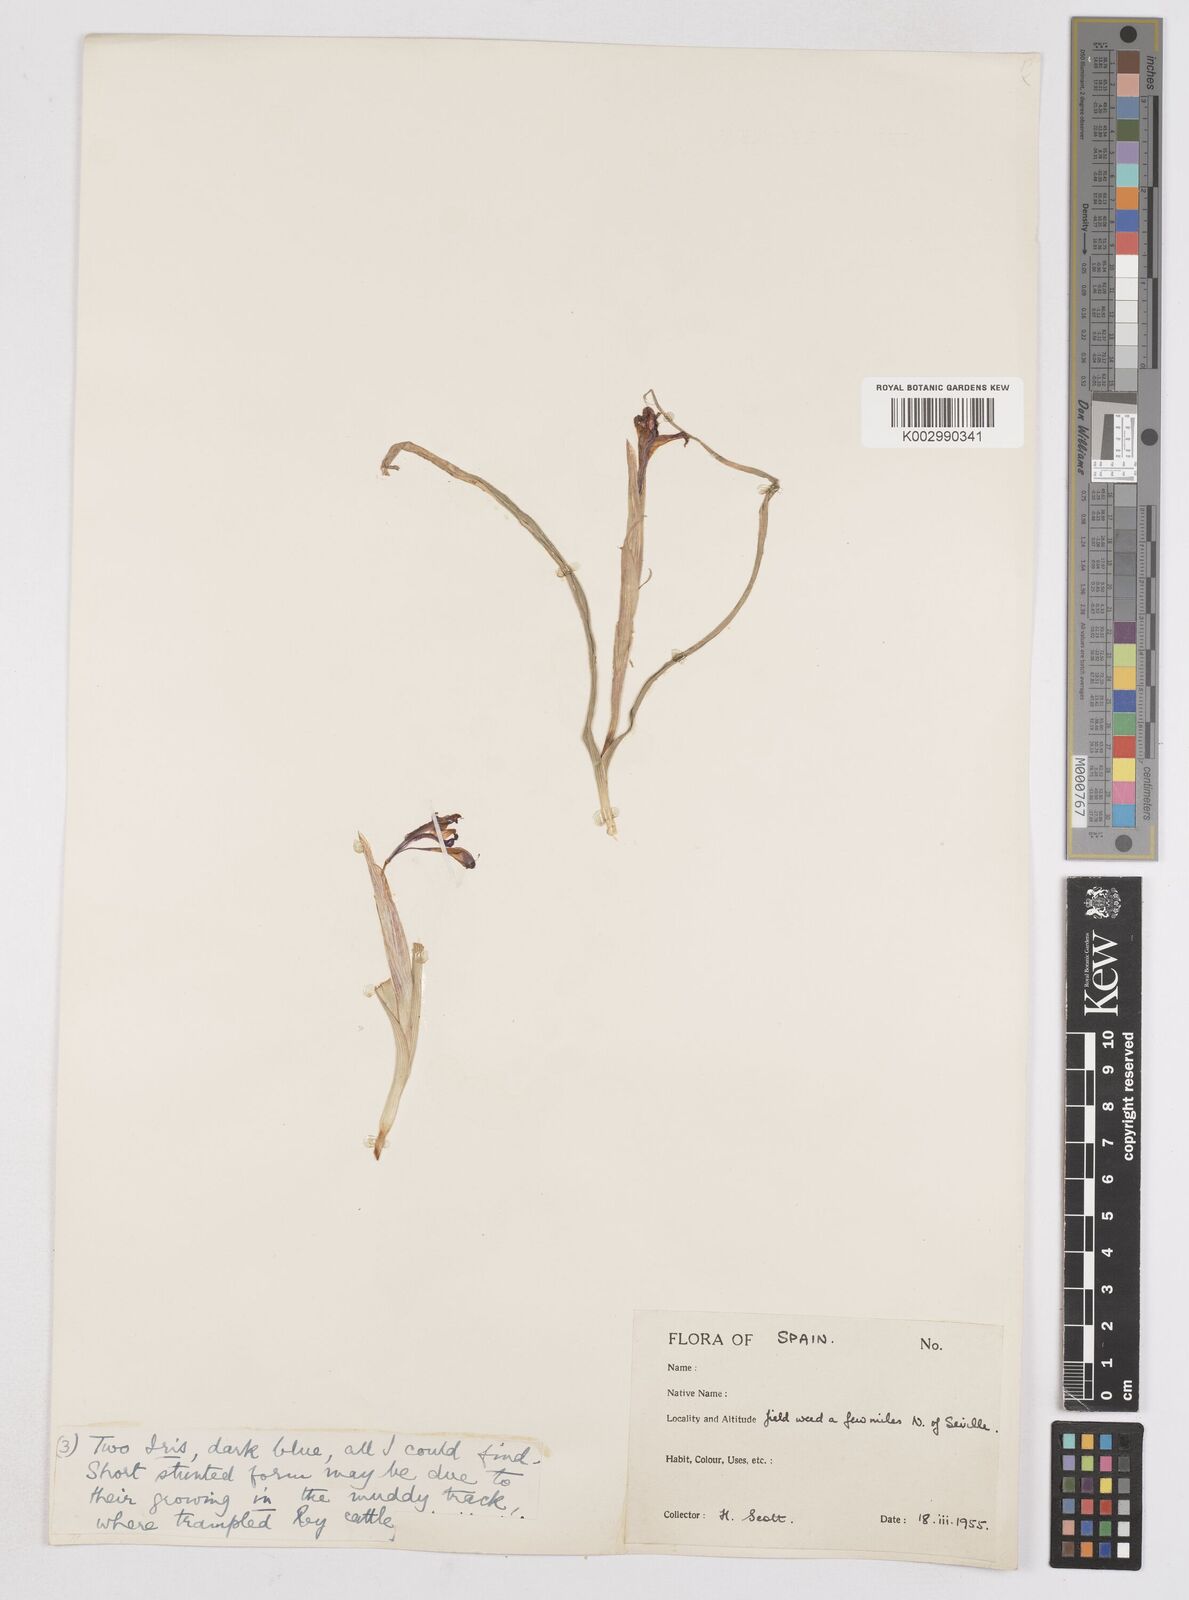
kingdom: Plantae
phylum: Tracheophyta
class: Liliopsida
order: Asparagales
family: Iridaceae
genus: Moraea
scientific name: Moraea sisyrinchium
